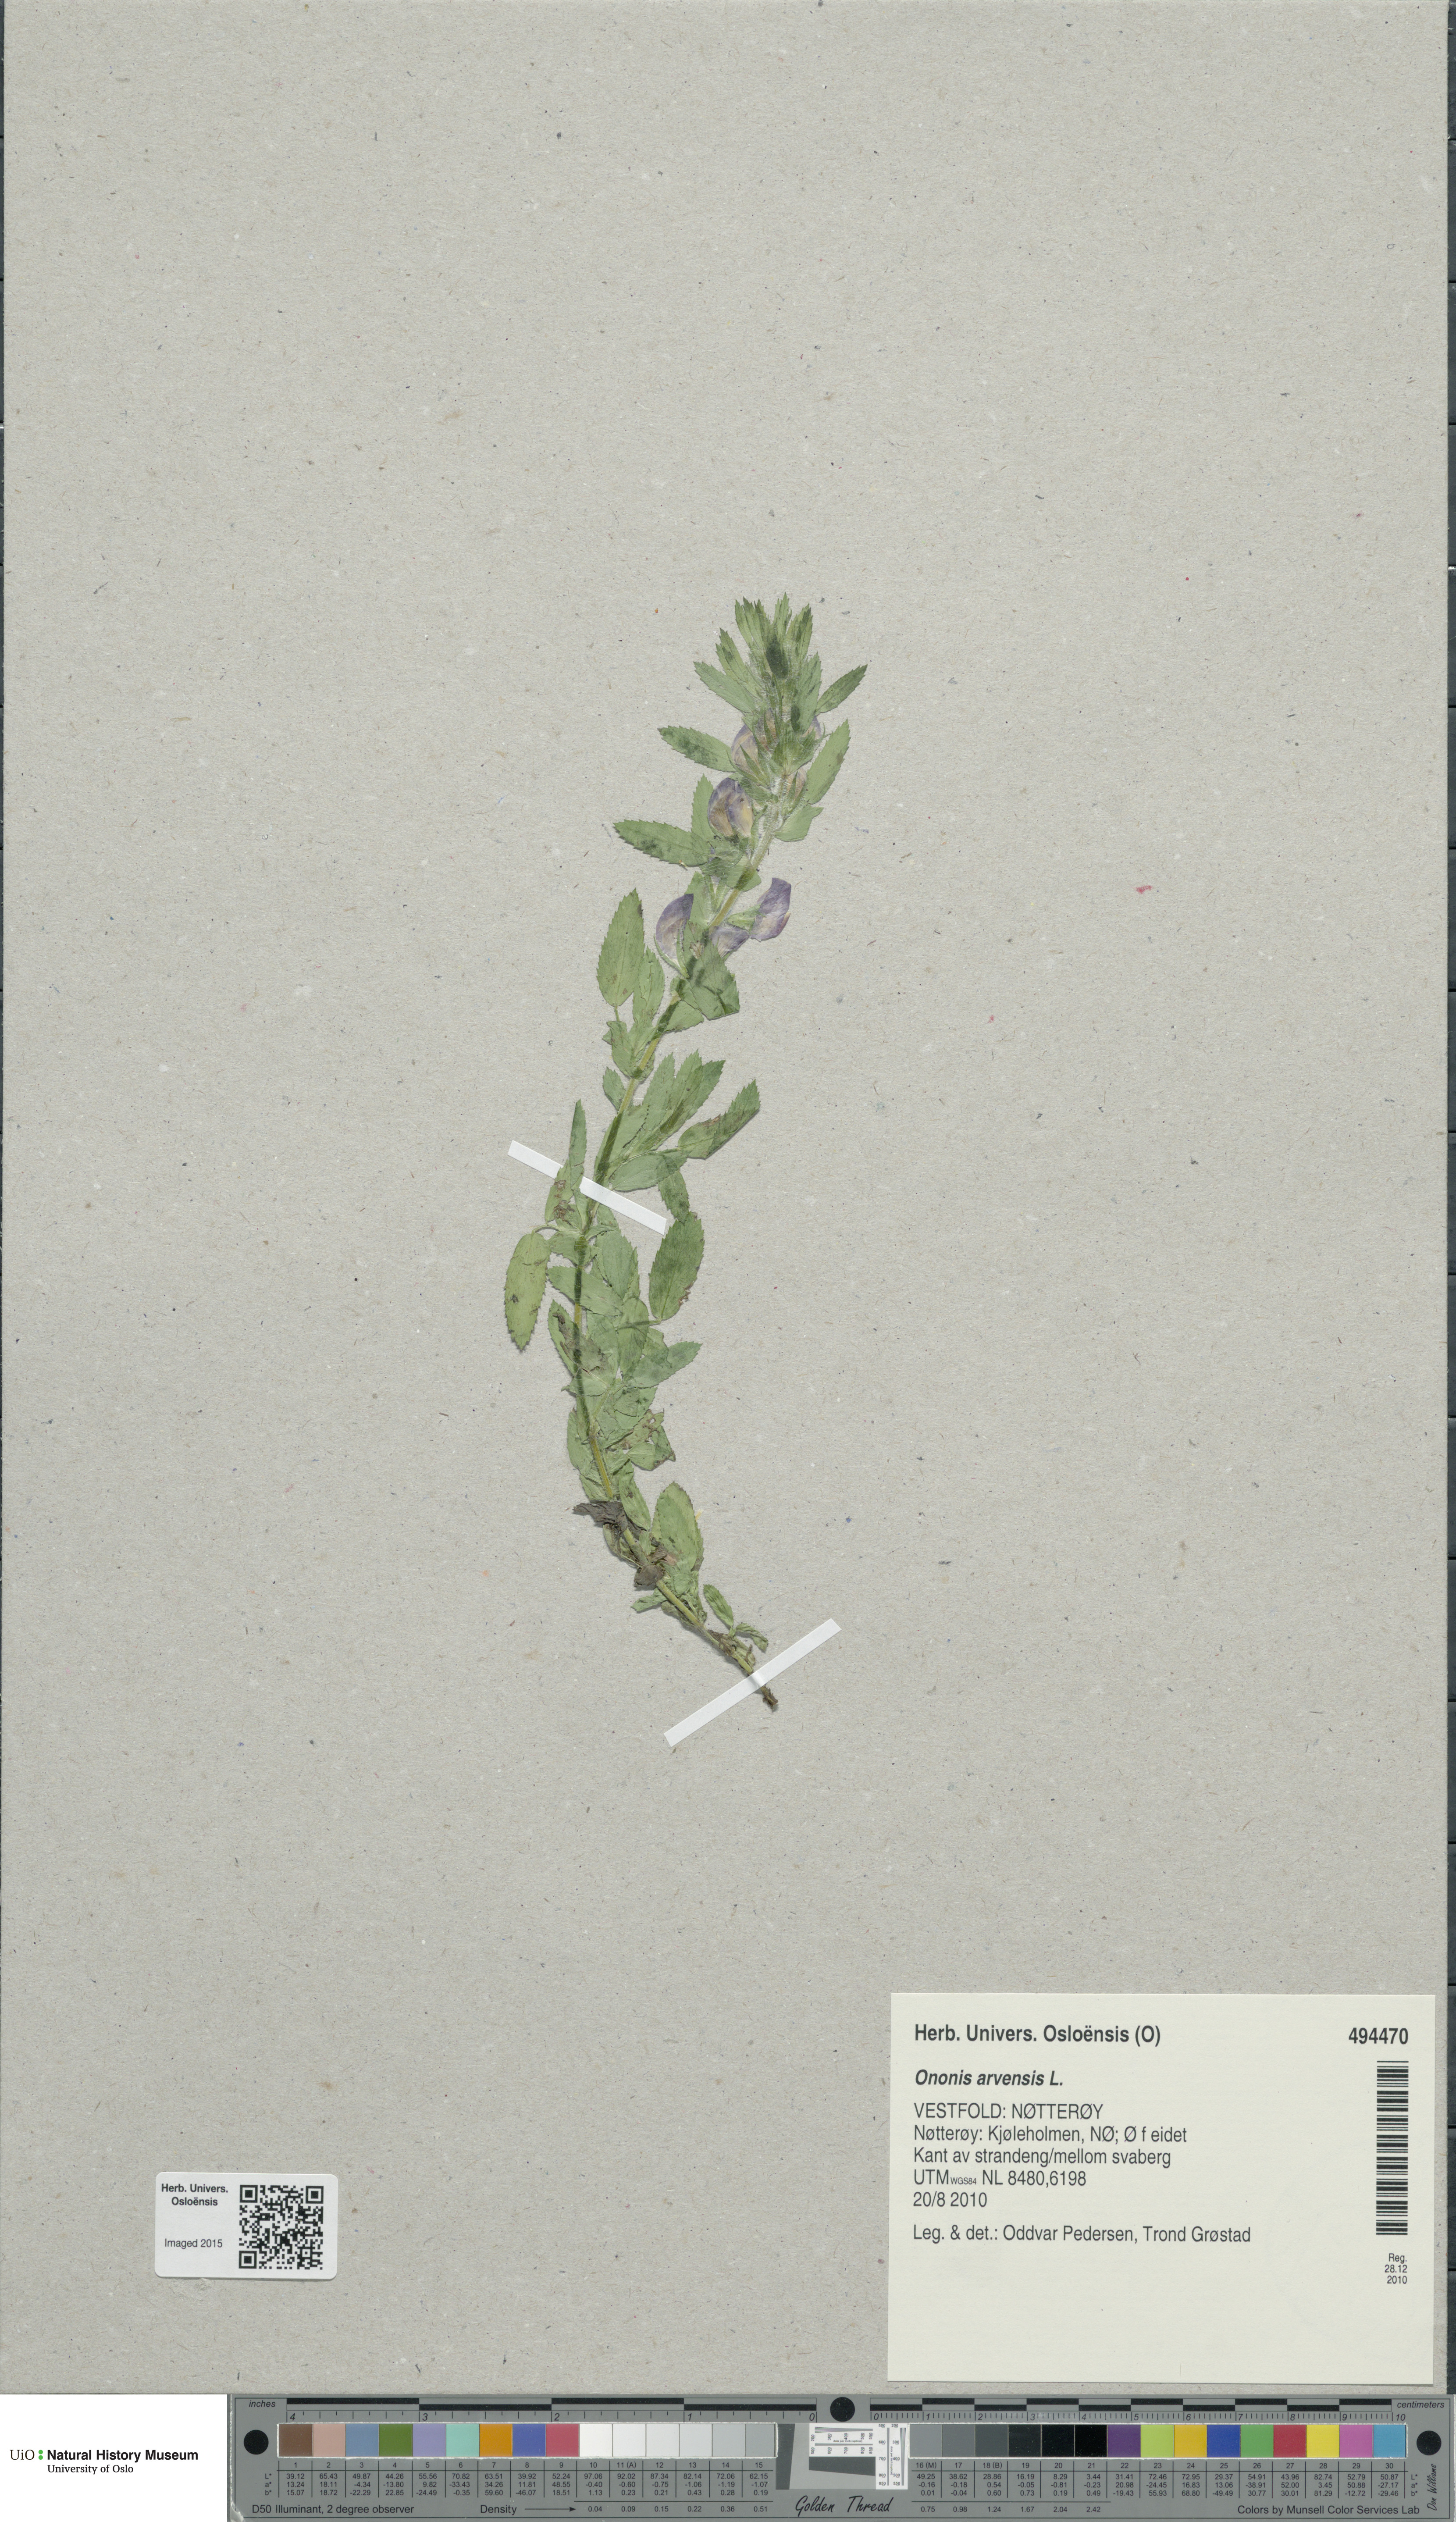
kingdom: Plantae
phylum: Tracheophyta
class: Magnoliopsida
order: Fabales
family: Fabaceae
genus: Ononis
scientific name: Ononis arvensis
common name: Field restharrow
